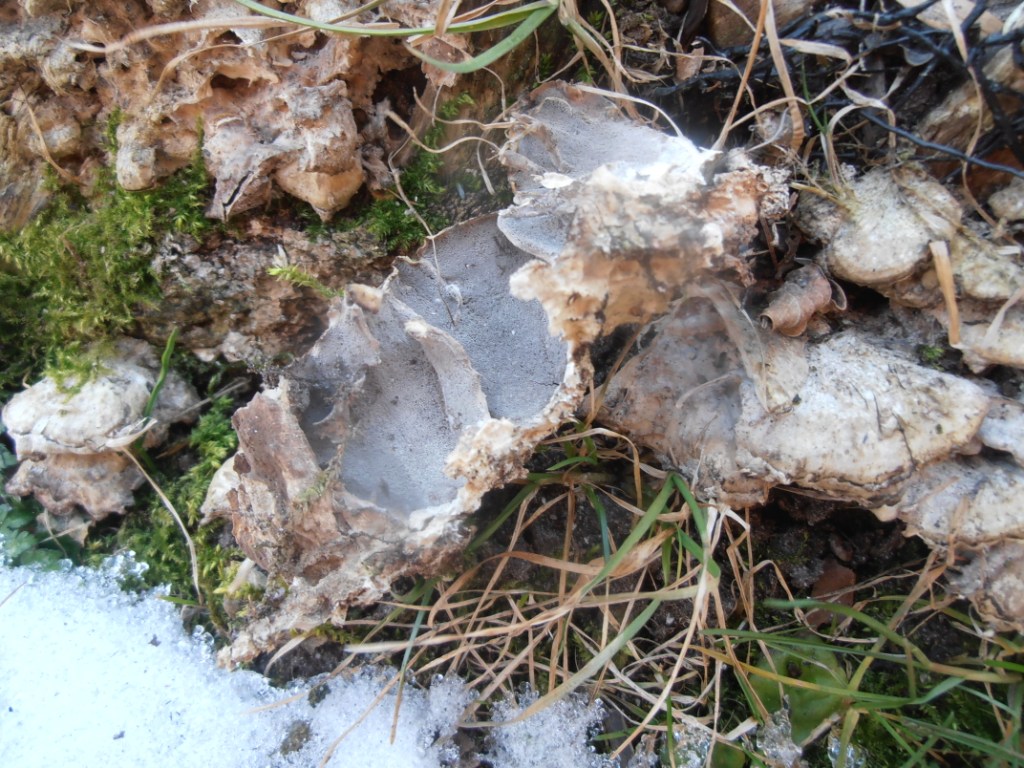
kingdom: Fungi
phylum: Basidiomycota
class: Agaricomycetes
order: Polyporales
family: Phanerochaetaceae
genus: Bjerkandera
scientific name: Bjerkandera adusta
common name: sveden sodporesvamp
